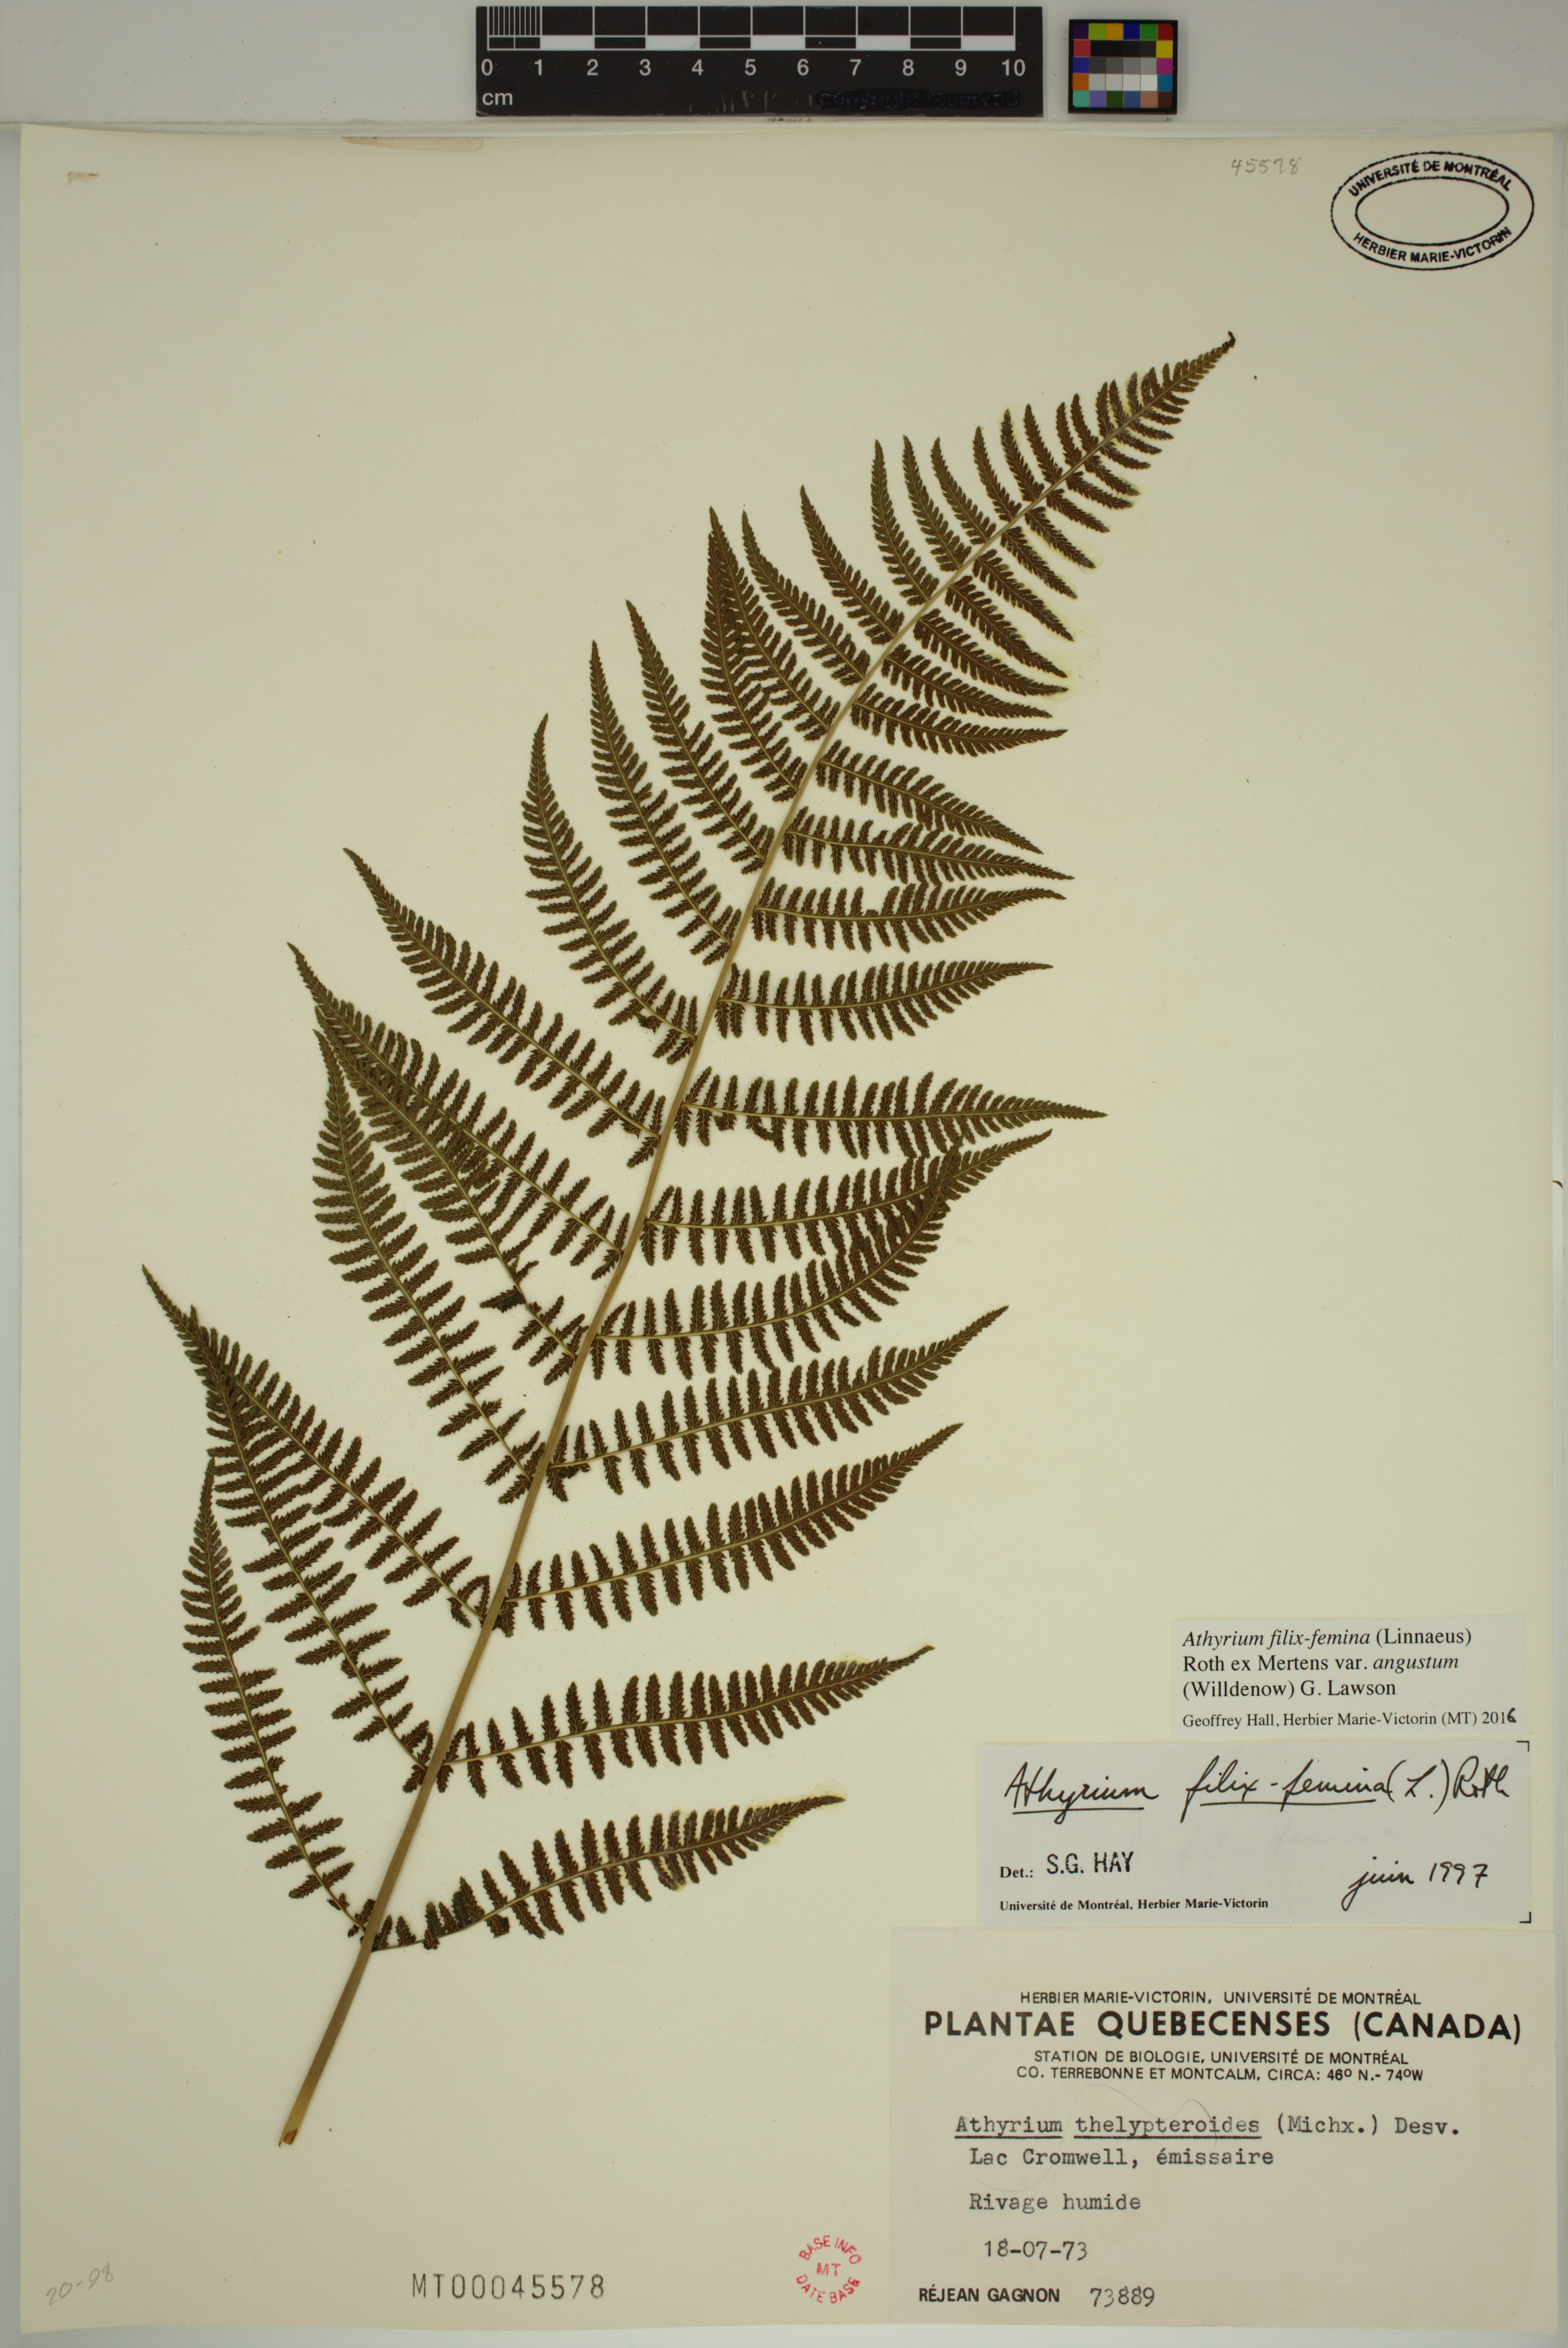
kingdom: Plantae
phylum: Tracheophyta
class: Polypodiopsida
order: Polypodiales
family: Athyriaceae
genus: Athyrium
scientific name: Athyrium angustum
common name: Northern lady fern
